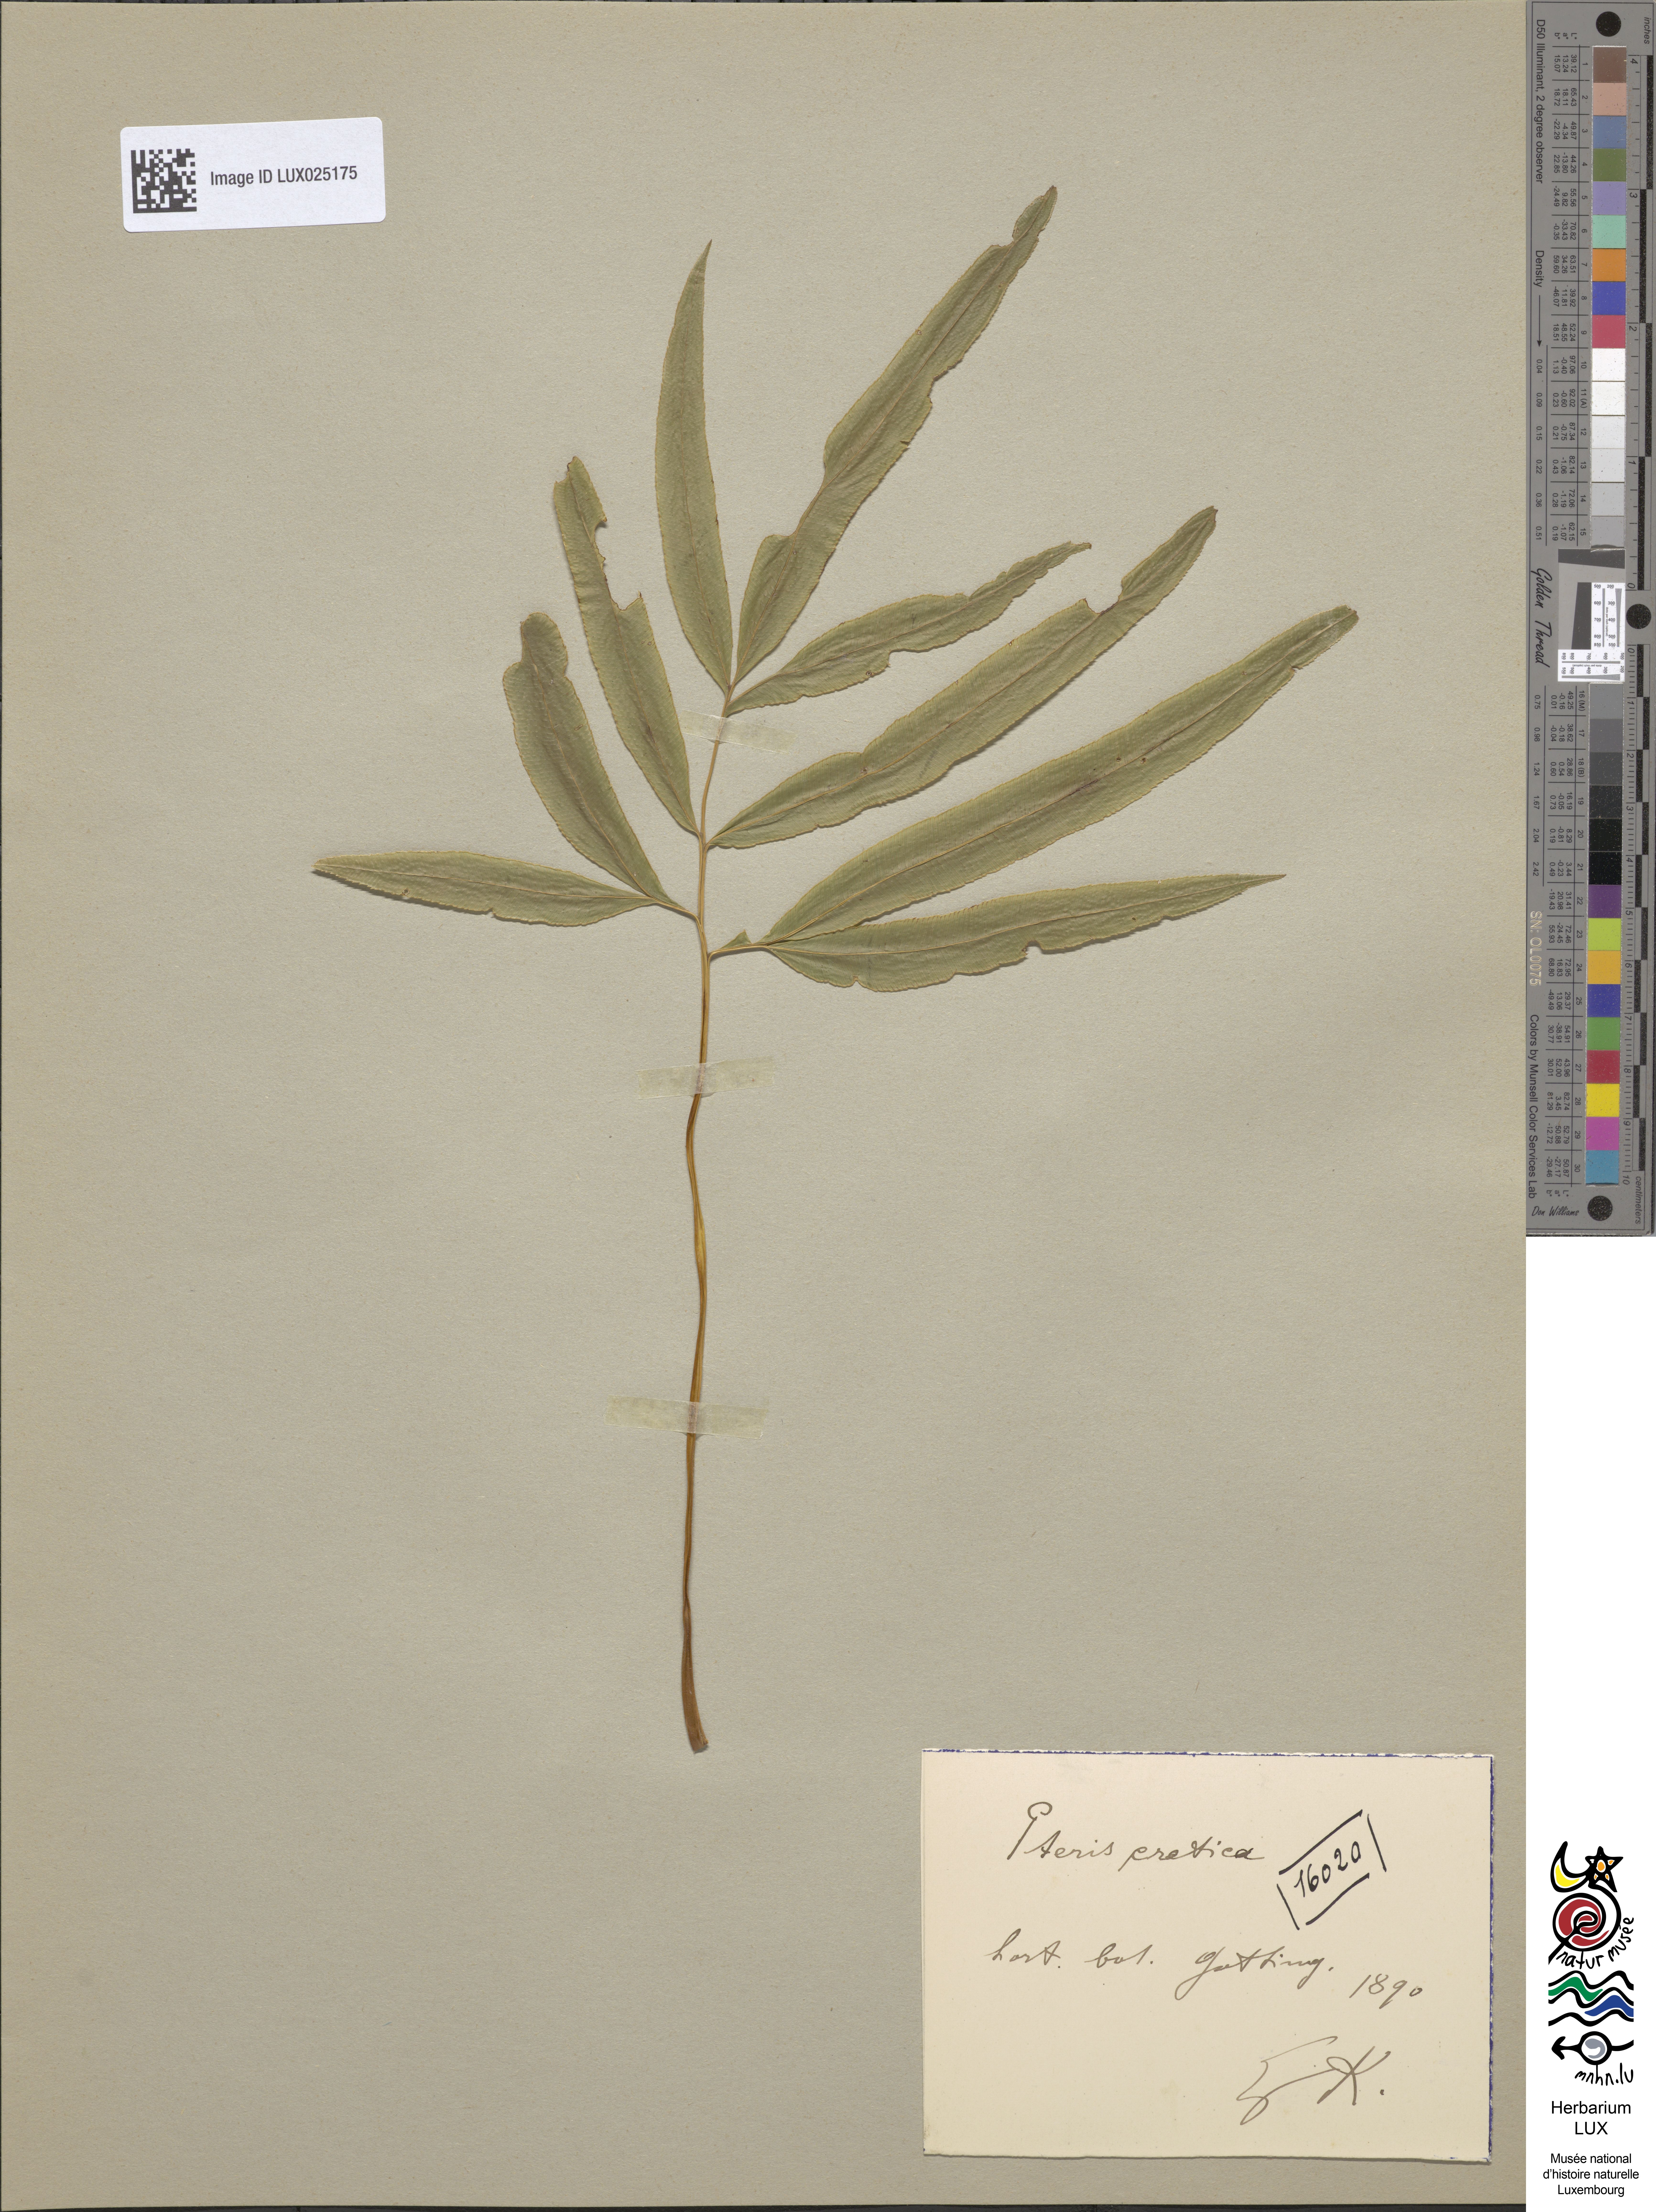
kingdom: Plantae
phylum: Tracheophyta
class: Polypodiopsida
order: Polypodiales
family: Pteridaceae
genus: Pteris
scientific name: Pteris cretica
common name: Ribbon fern
